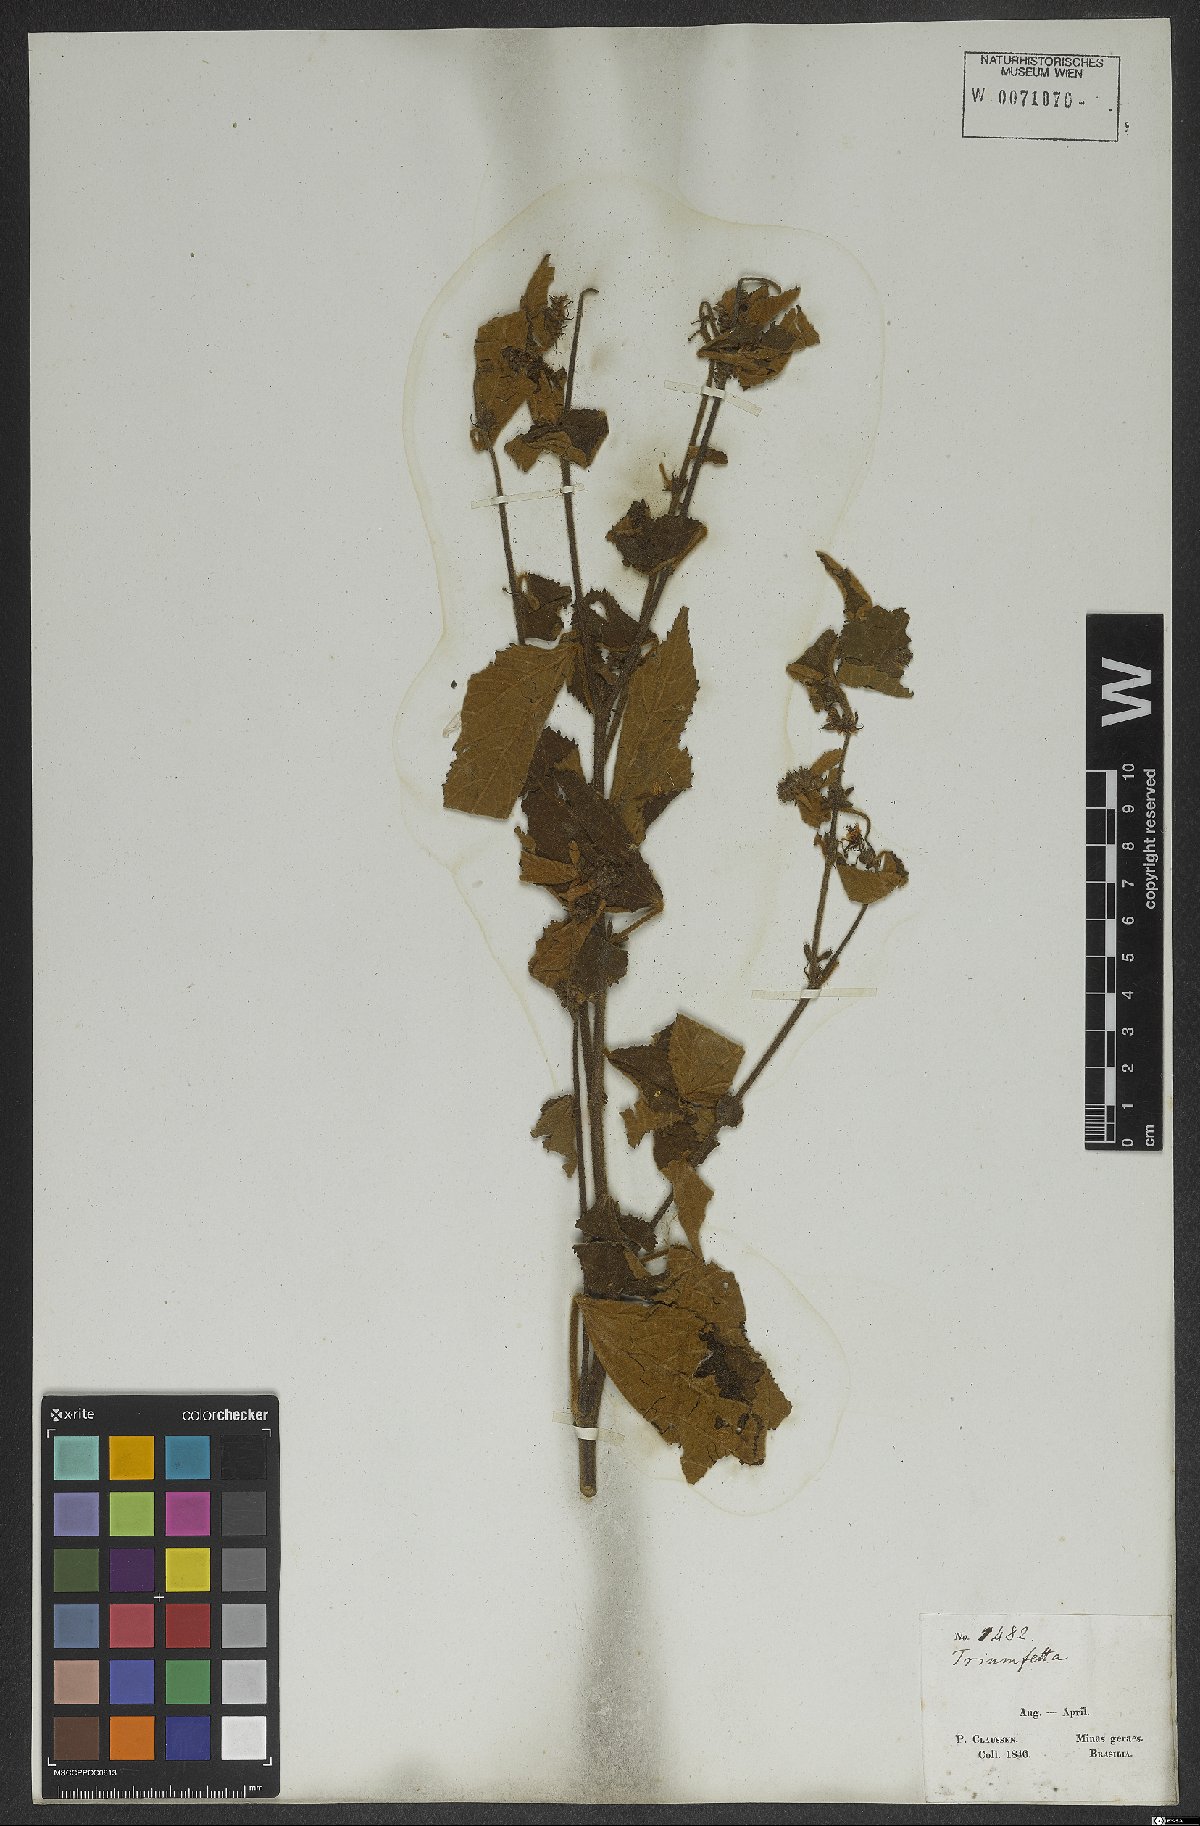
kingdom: Plantae
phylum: Tracheophyta
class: Magnoliopsida
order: Malvales
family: Malvaceae
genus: Triumfetta
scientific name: Triumfetta mollissima
